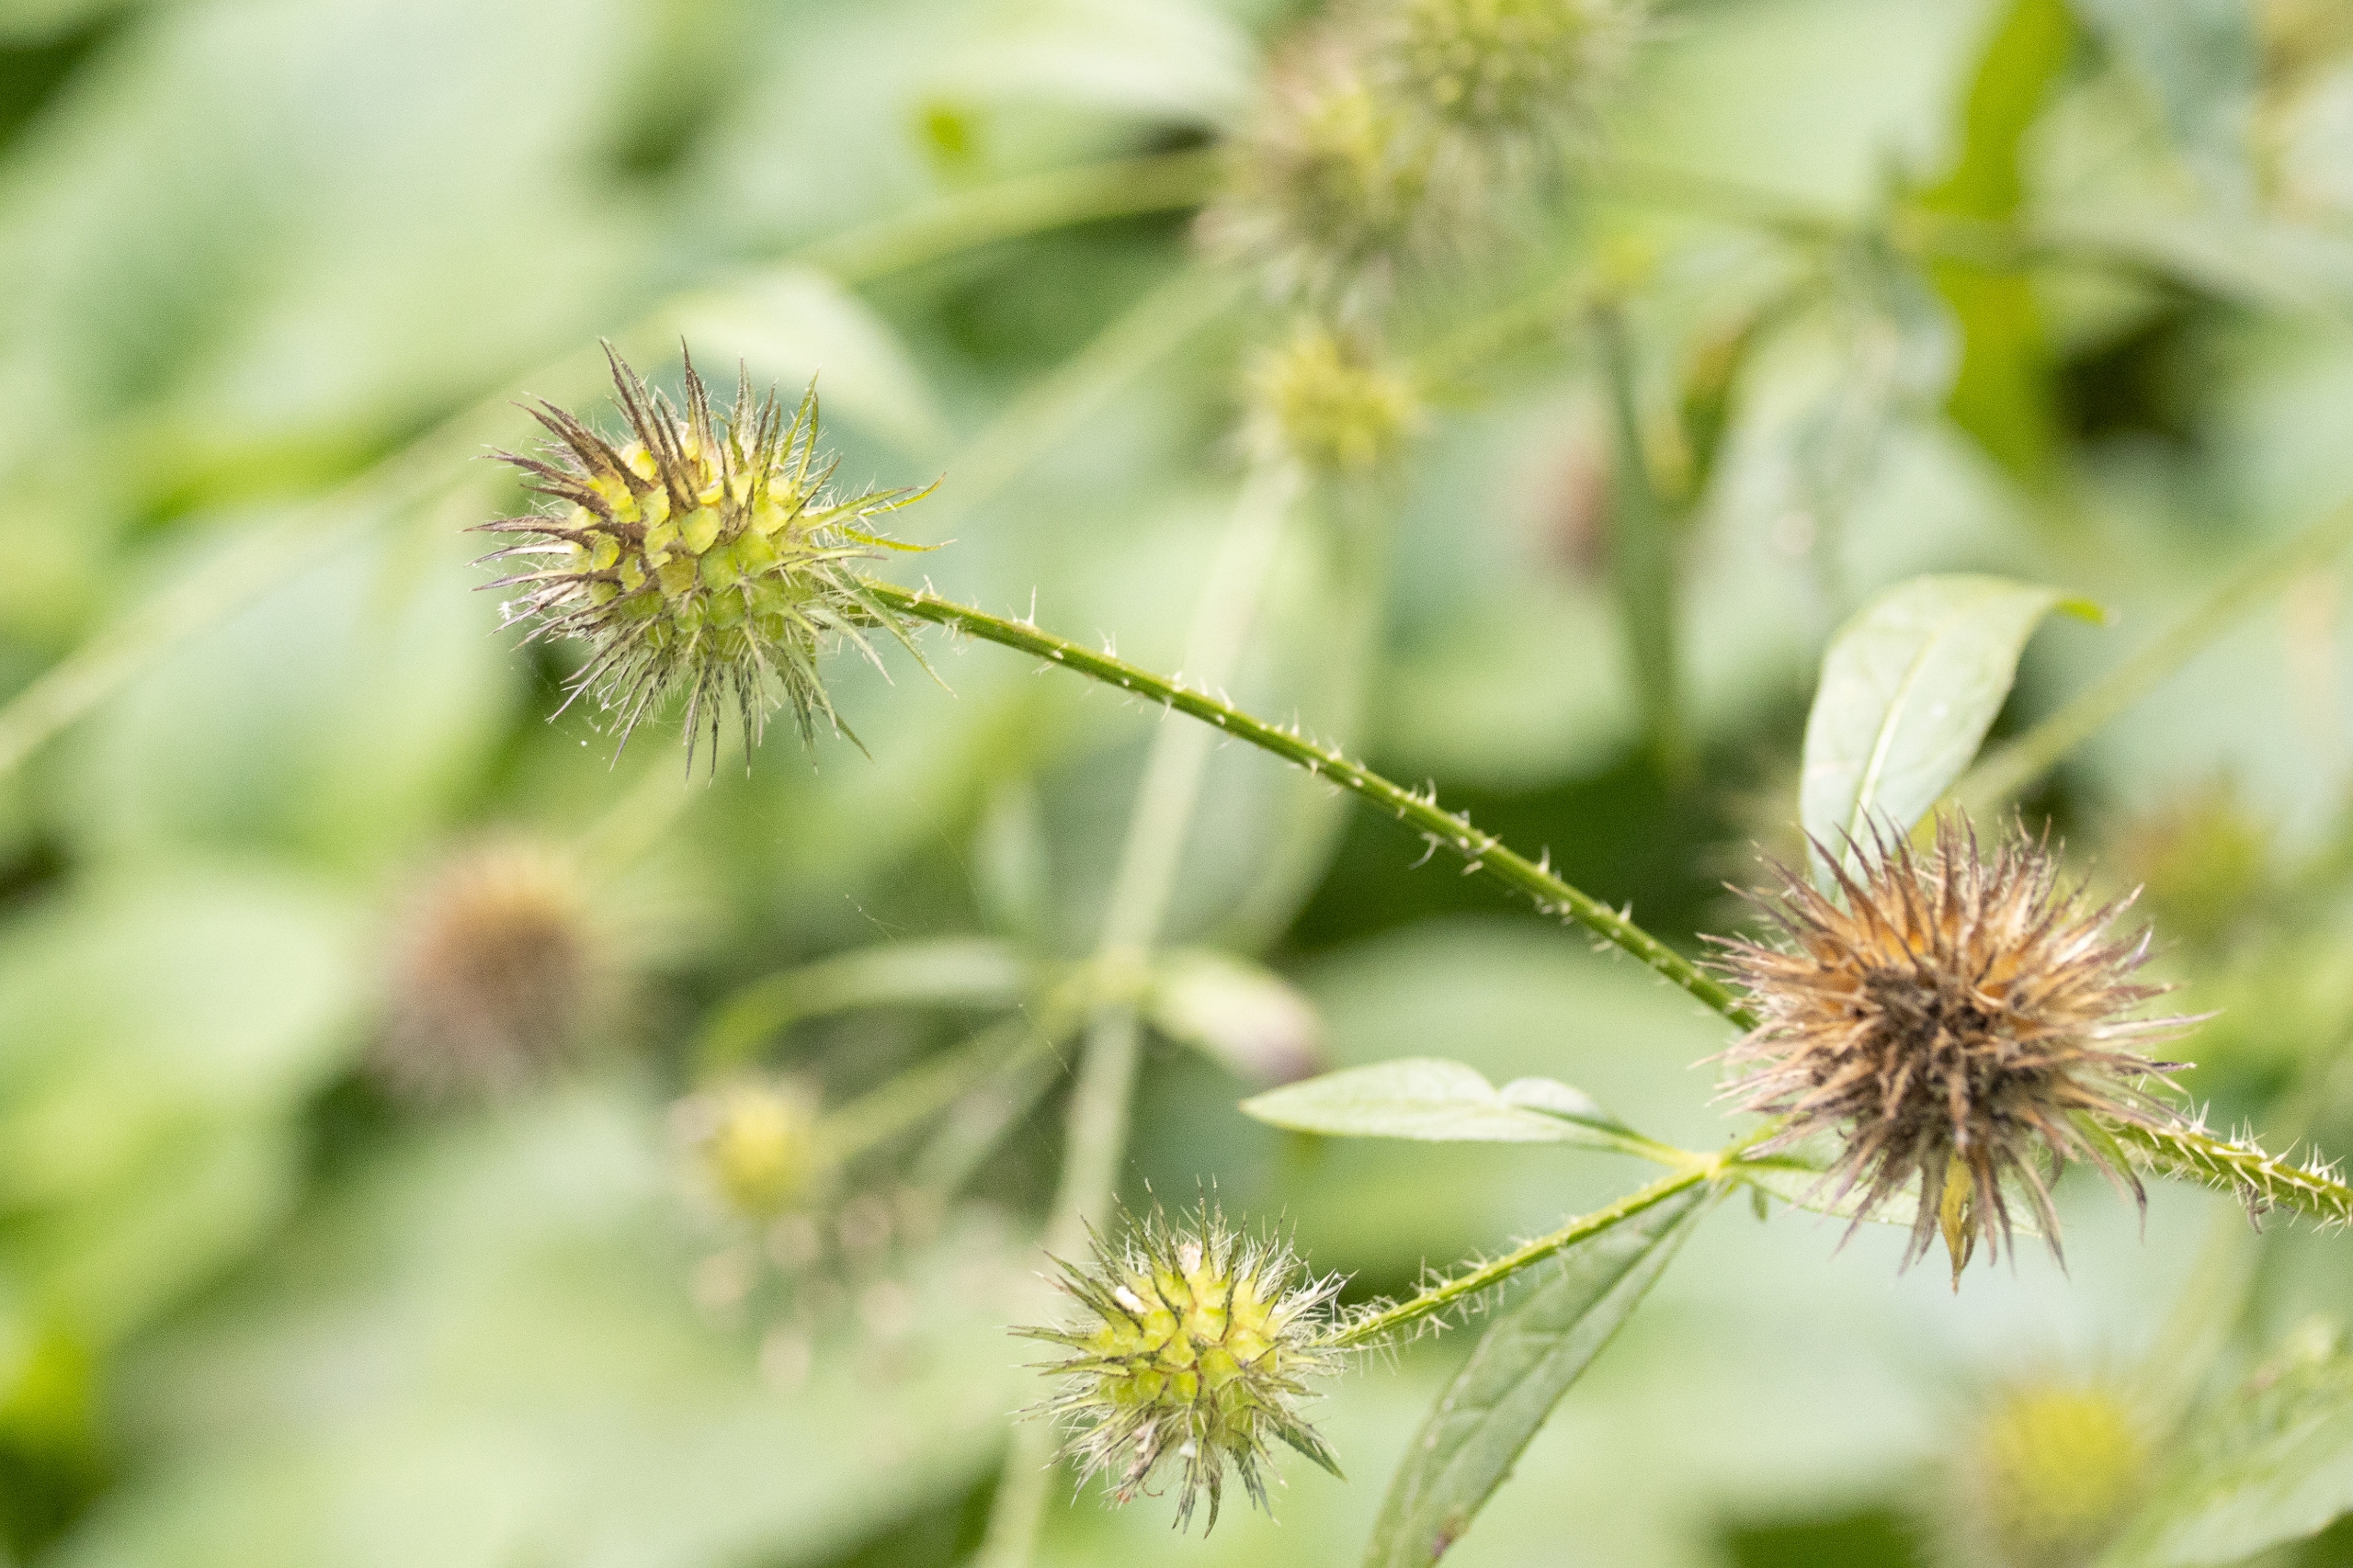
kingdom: Plantae
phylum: Tracheophyta
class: Magnoliopsida
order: Dipsacales
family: Caprifoliaceae
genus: Dipsacus
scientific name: Dipsacus strigosus
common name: Pindsvin-kartebolle
